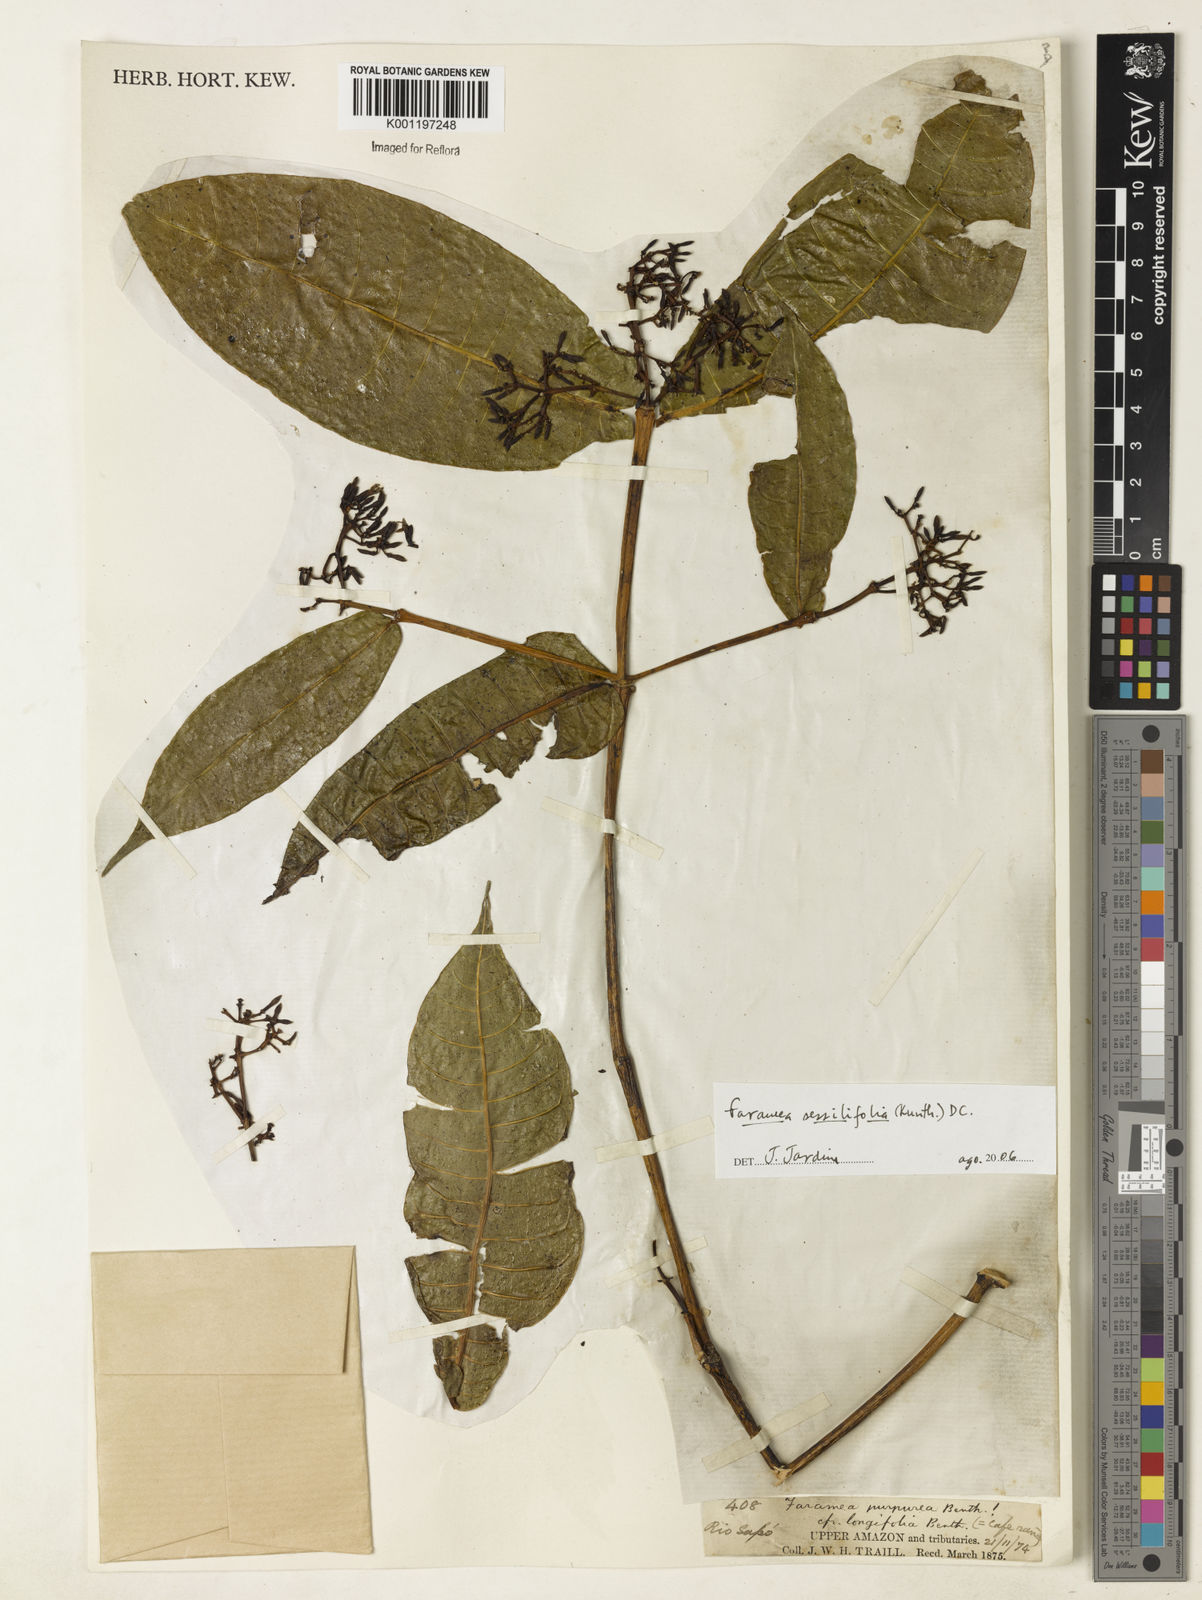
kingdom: Plantae
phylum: Tracheophyta
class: Magnoliopsida
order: Gentianales
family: Rubiaceae
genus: Faramea
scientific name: Faramea sessilifolia
